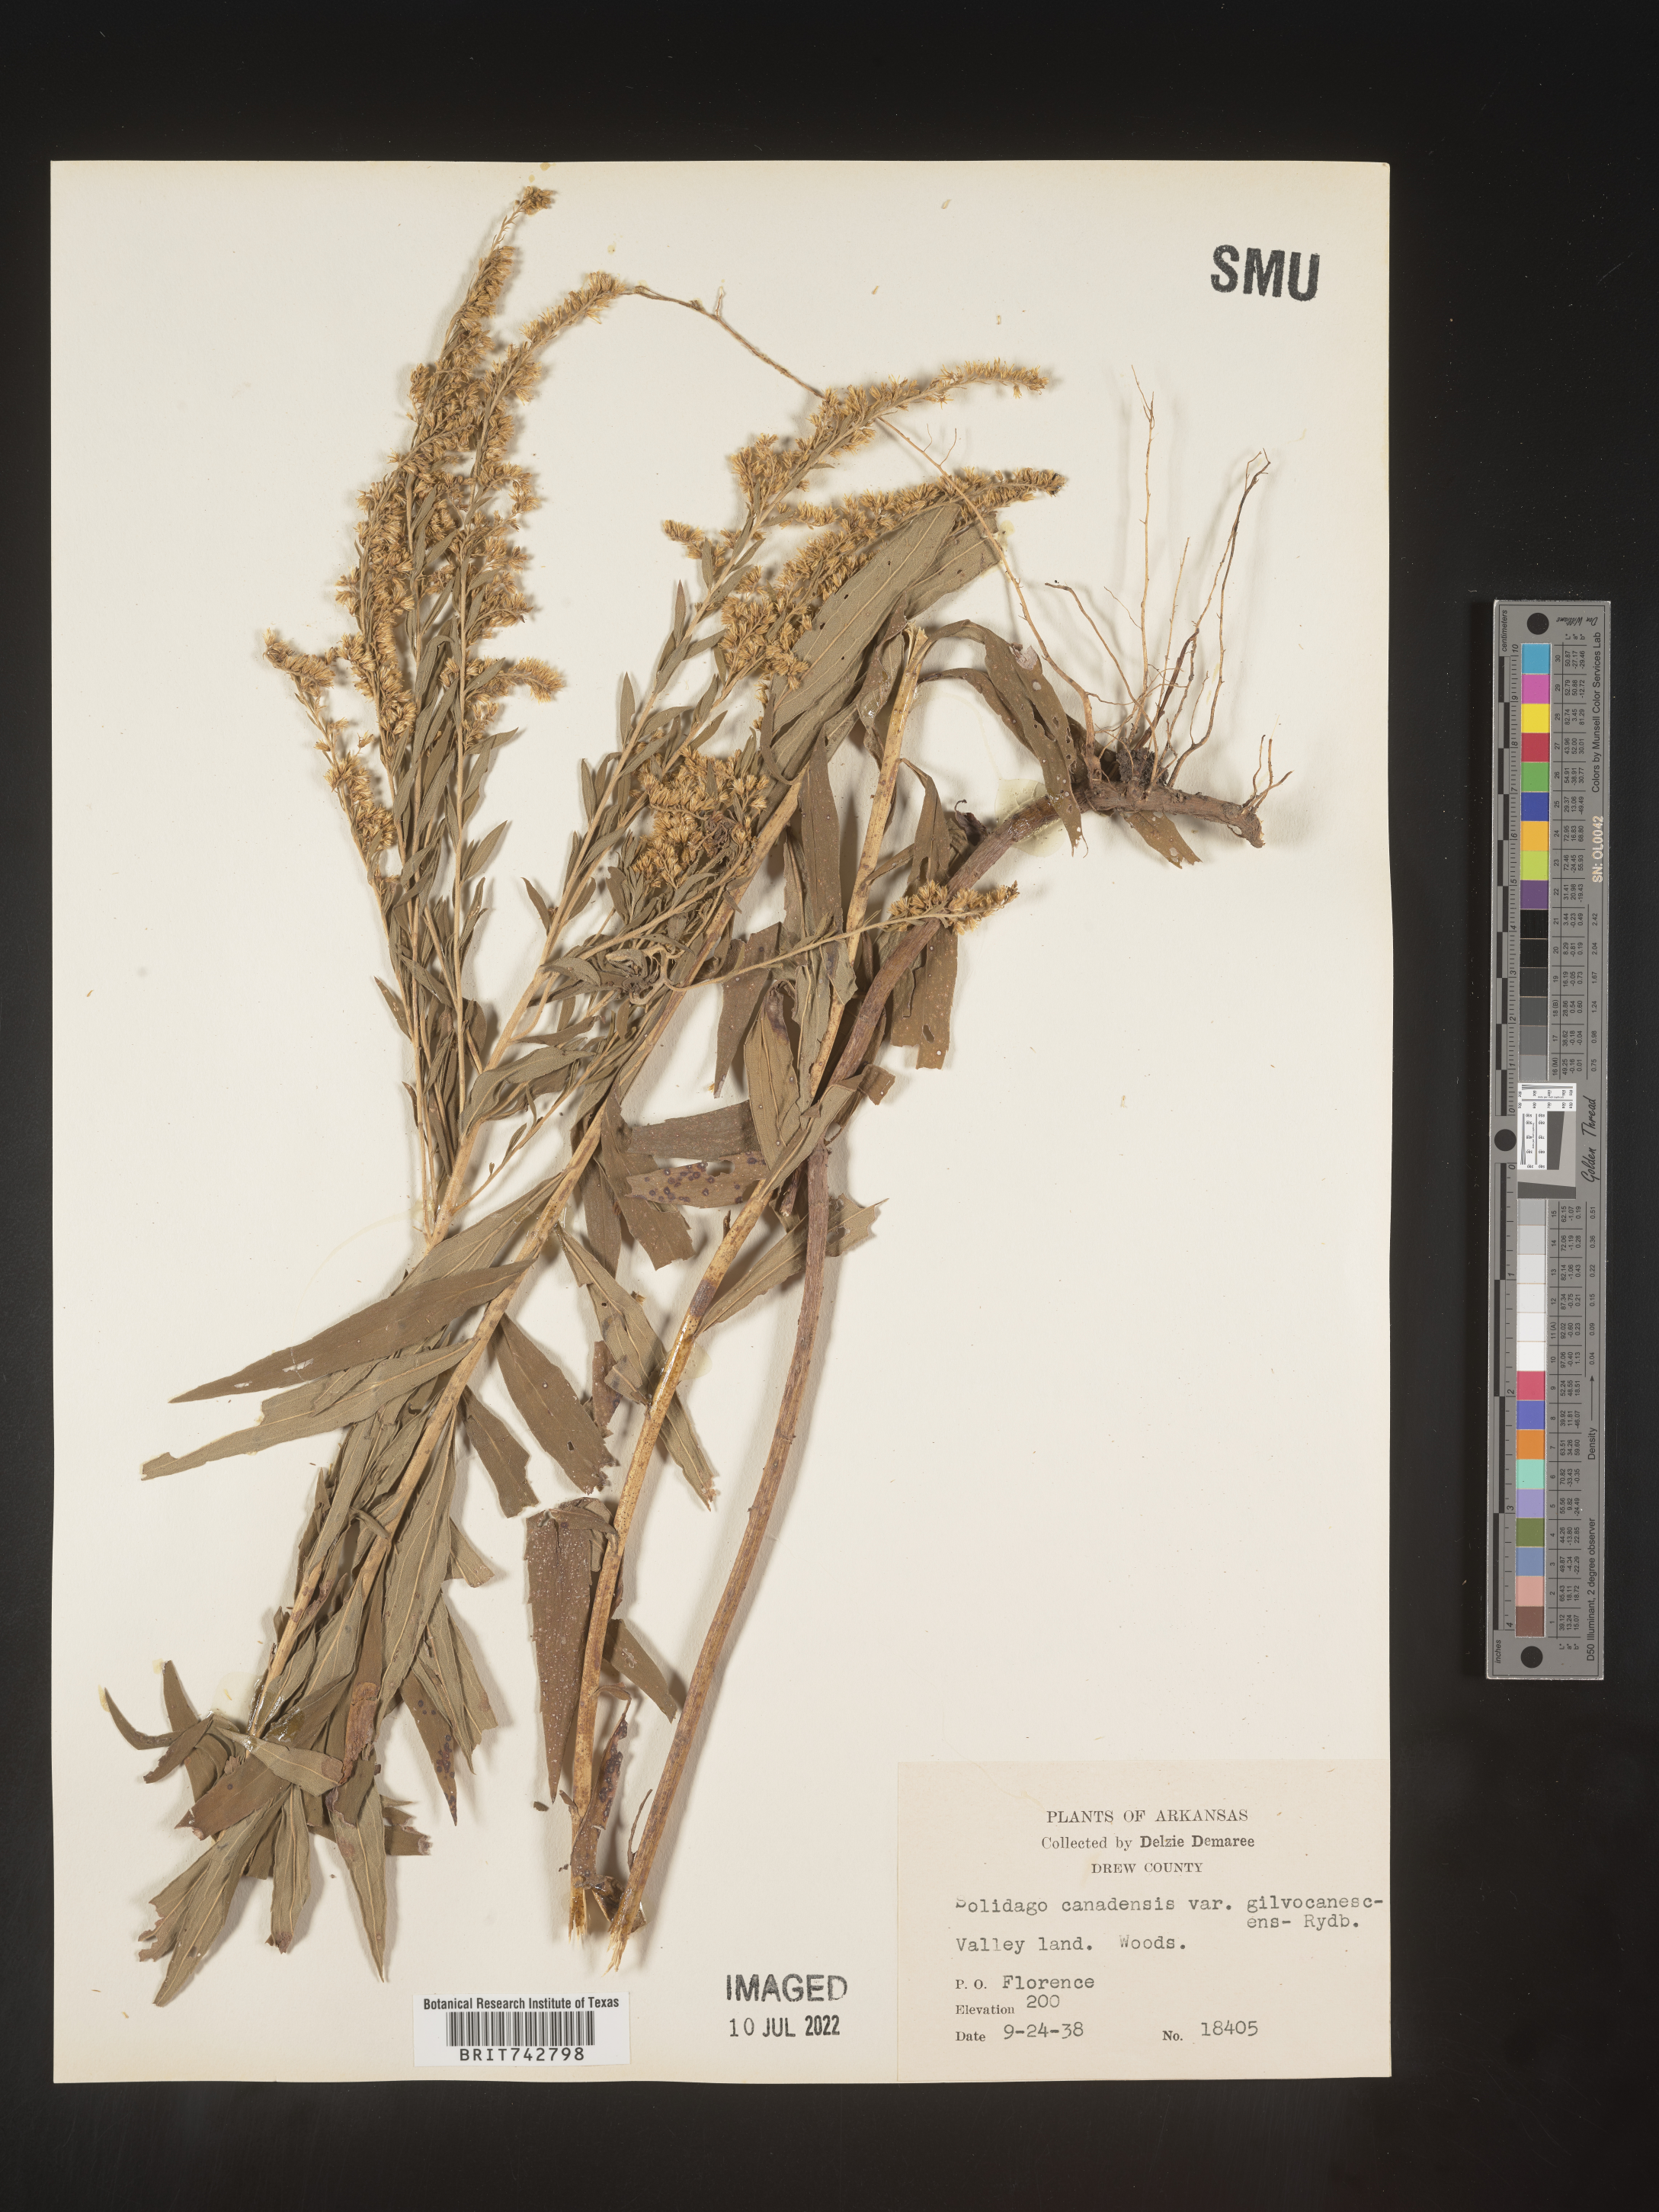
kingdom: Plantae
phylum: Tracheophyta
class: Magnoliopsida
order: Asterales
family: Asteraceae
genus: Solidago
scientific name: Solidago altissima
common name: Late goldenrod
